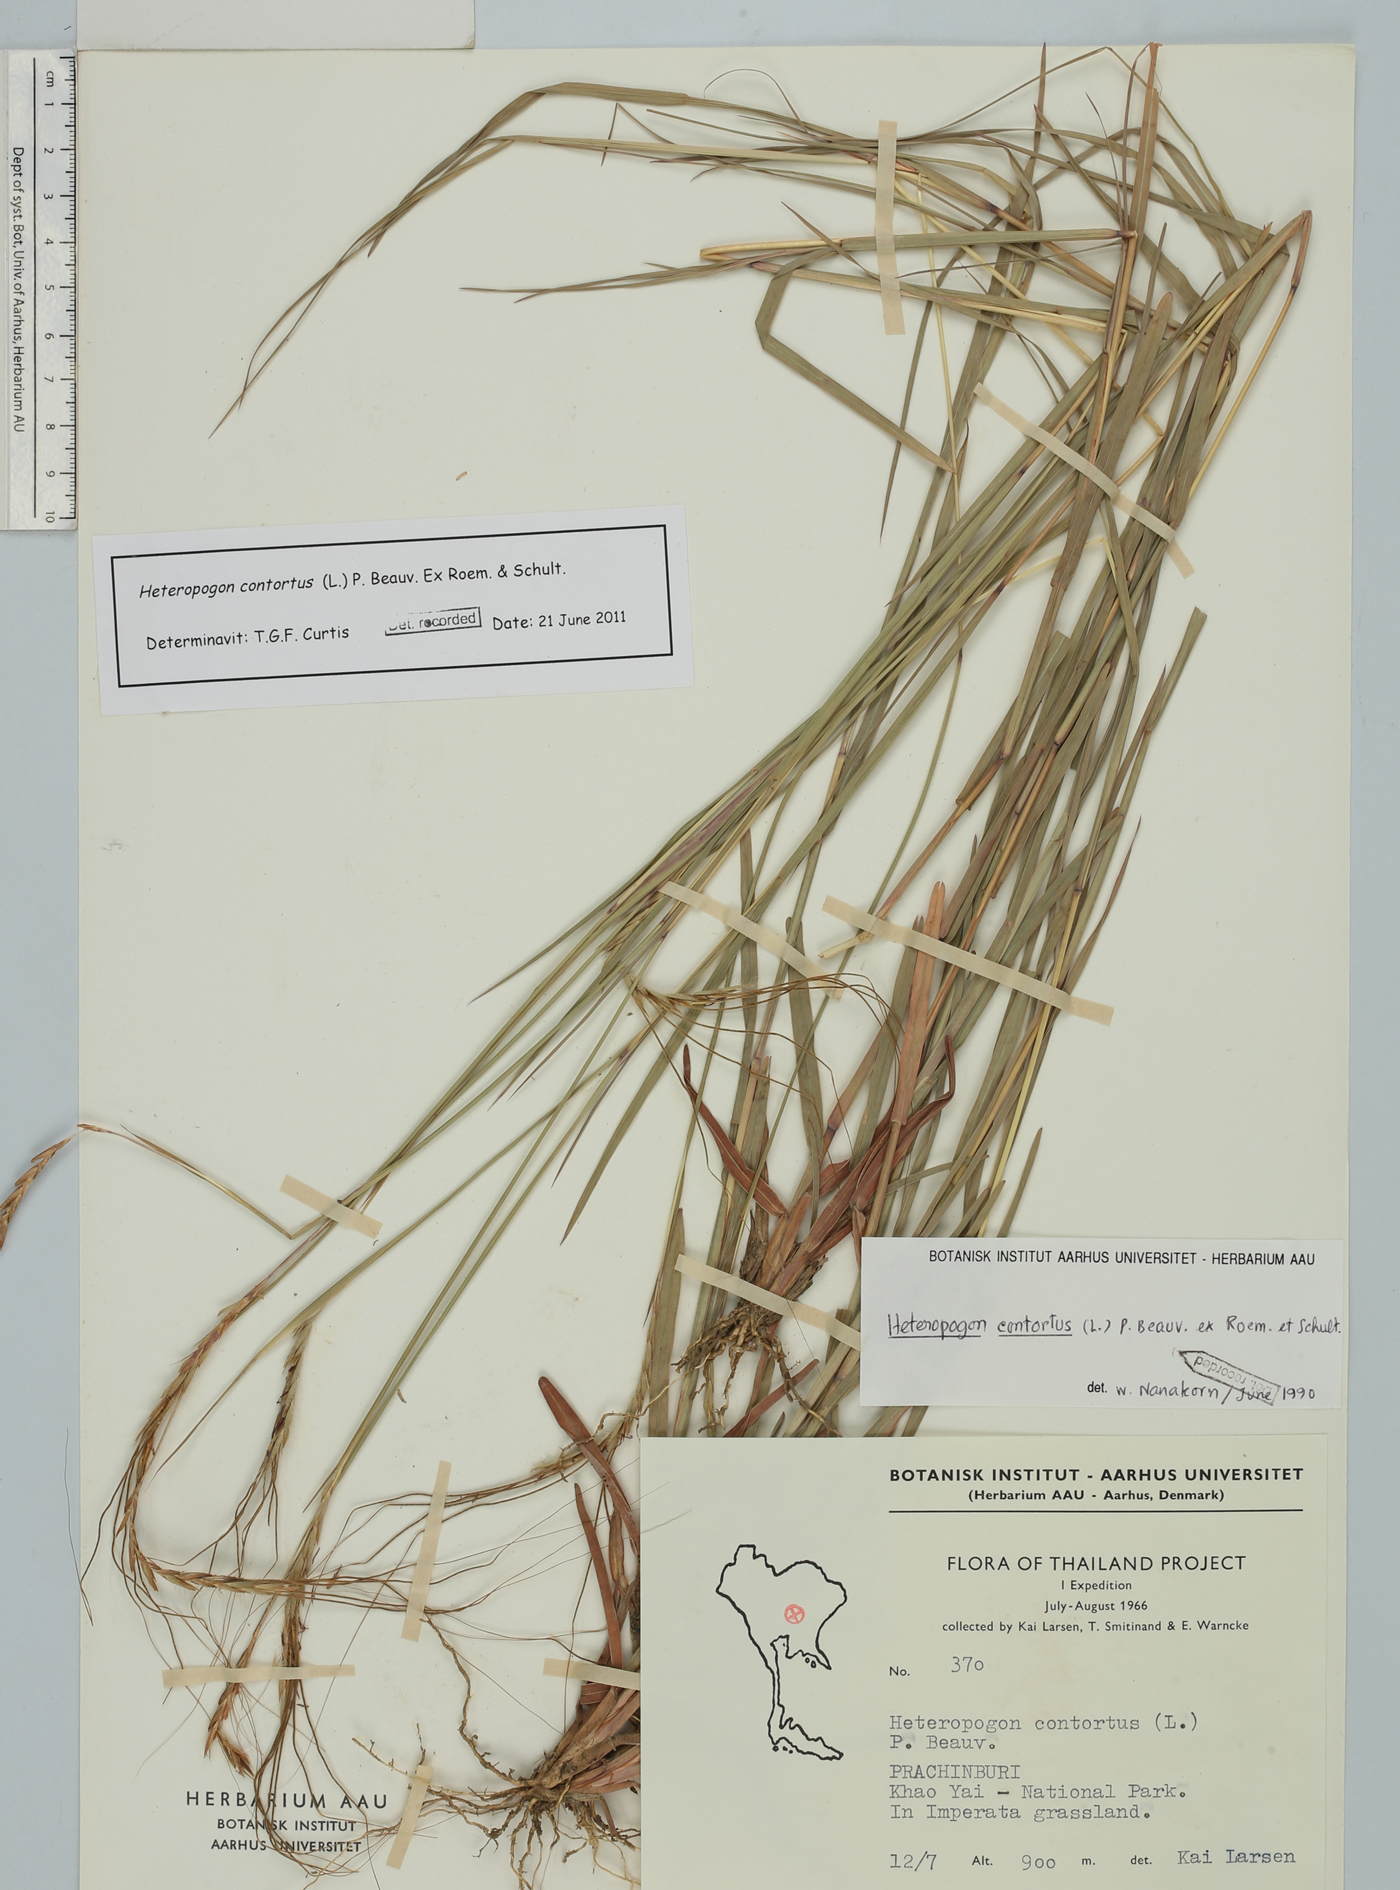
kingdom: Plantae
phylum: Tracheophyta
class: Liliopsida
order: Poales
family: Poaceae
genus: Heteropogon
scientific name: Heteropogon contortus
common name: Tanglehead
